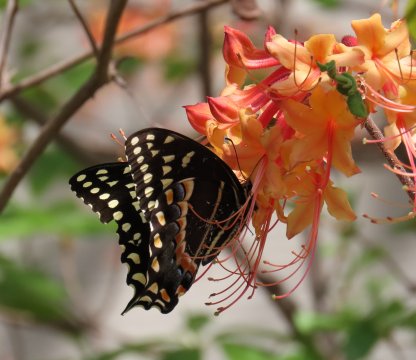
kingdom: Animalia
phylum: Arthropoda
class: Insecta
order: Lepidoptera
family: Papilionidae
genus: Pterourus
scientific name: Pterourus palamedes
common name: Palamedes Swallowtail
